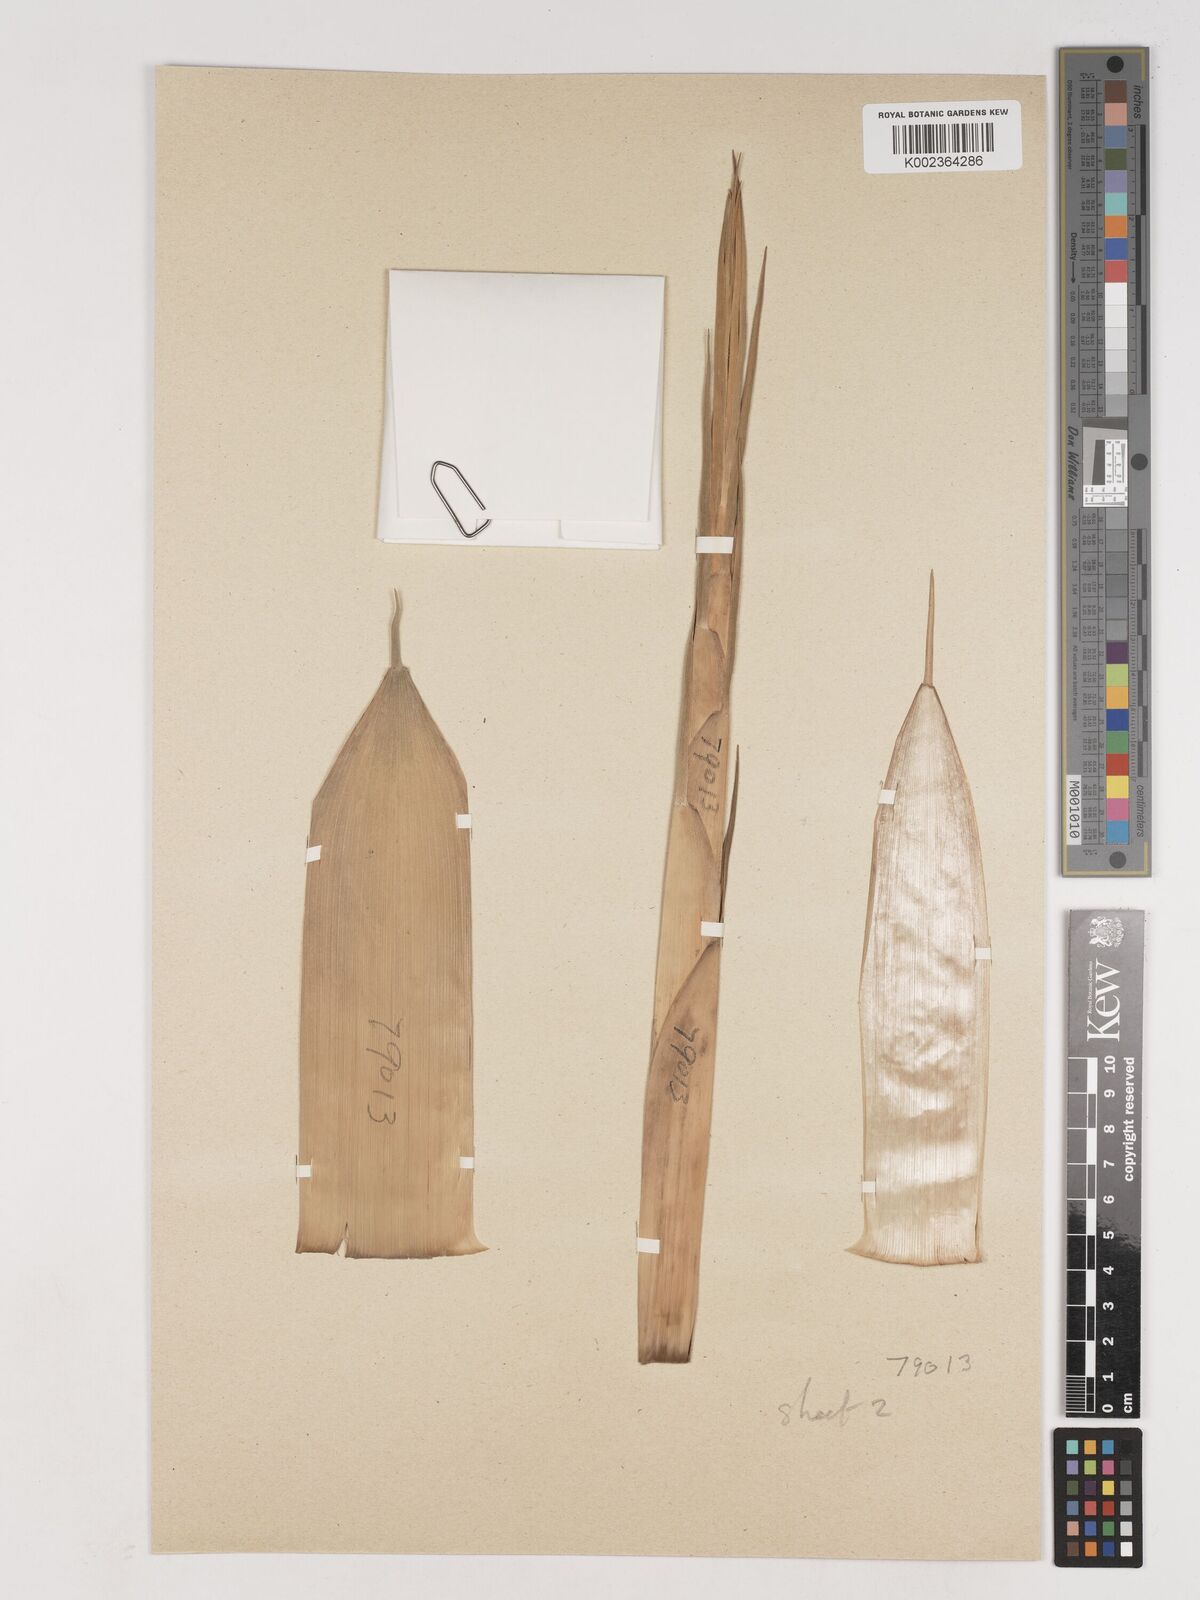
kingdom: Plantae
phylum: Tracheophyta
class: Liliopsida
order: Poales
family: Poaceae
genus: Phyllostachys
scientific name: Phyllostachys rivalis
